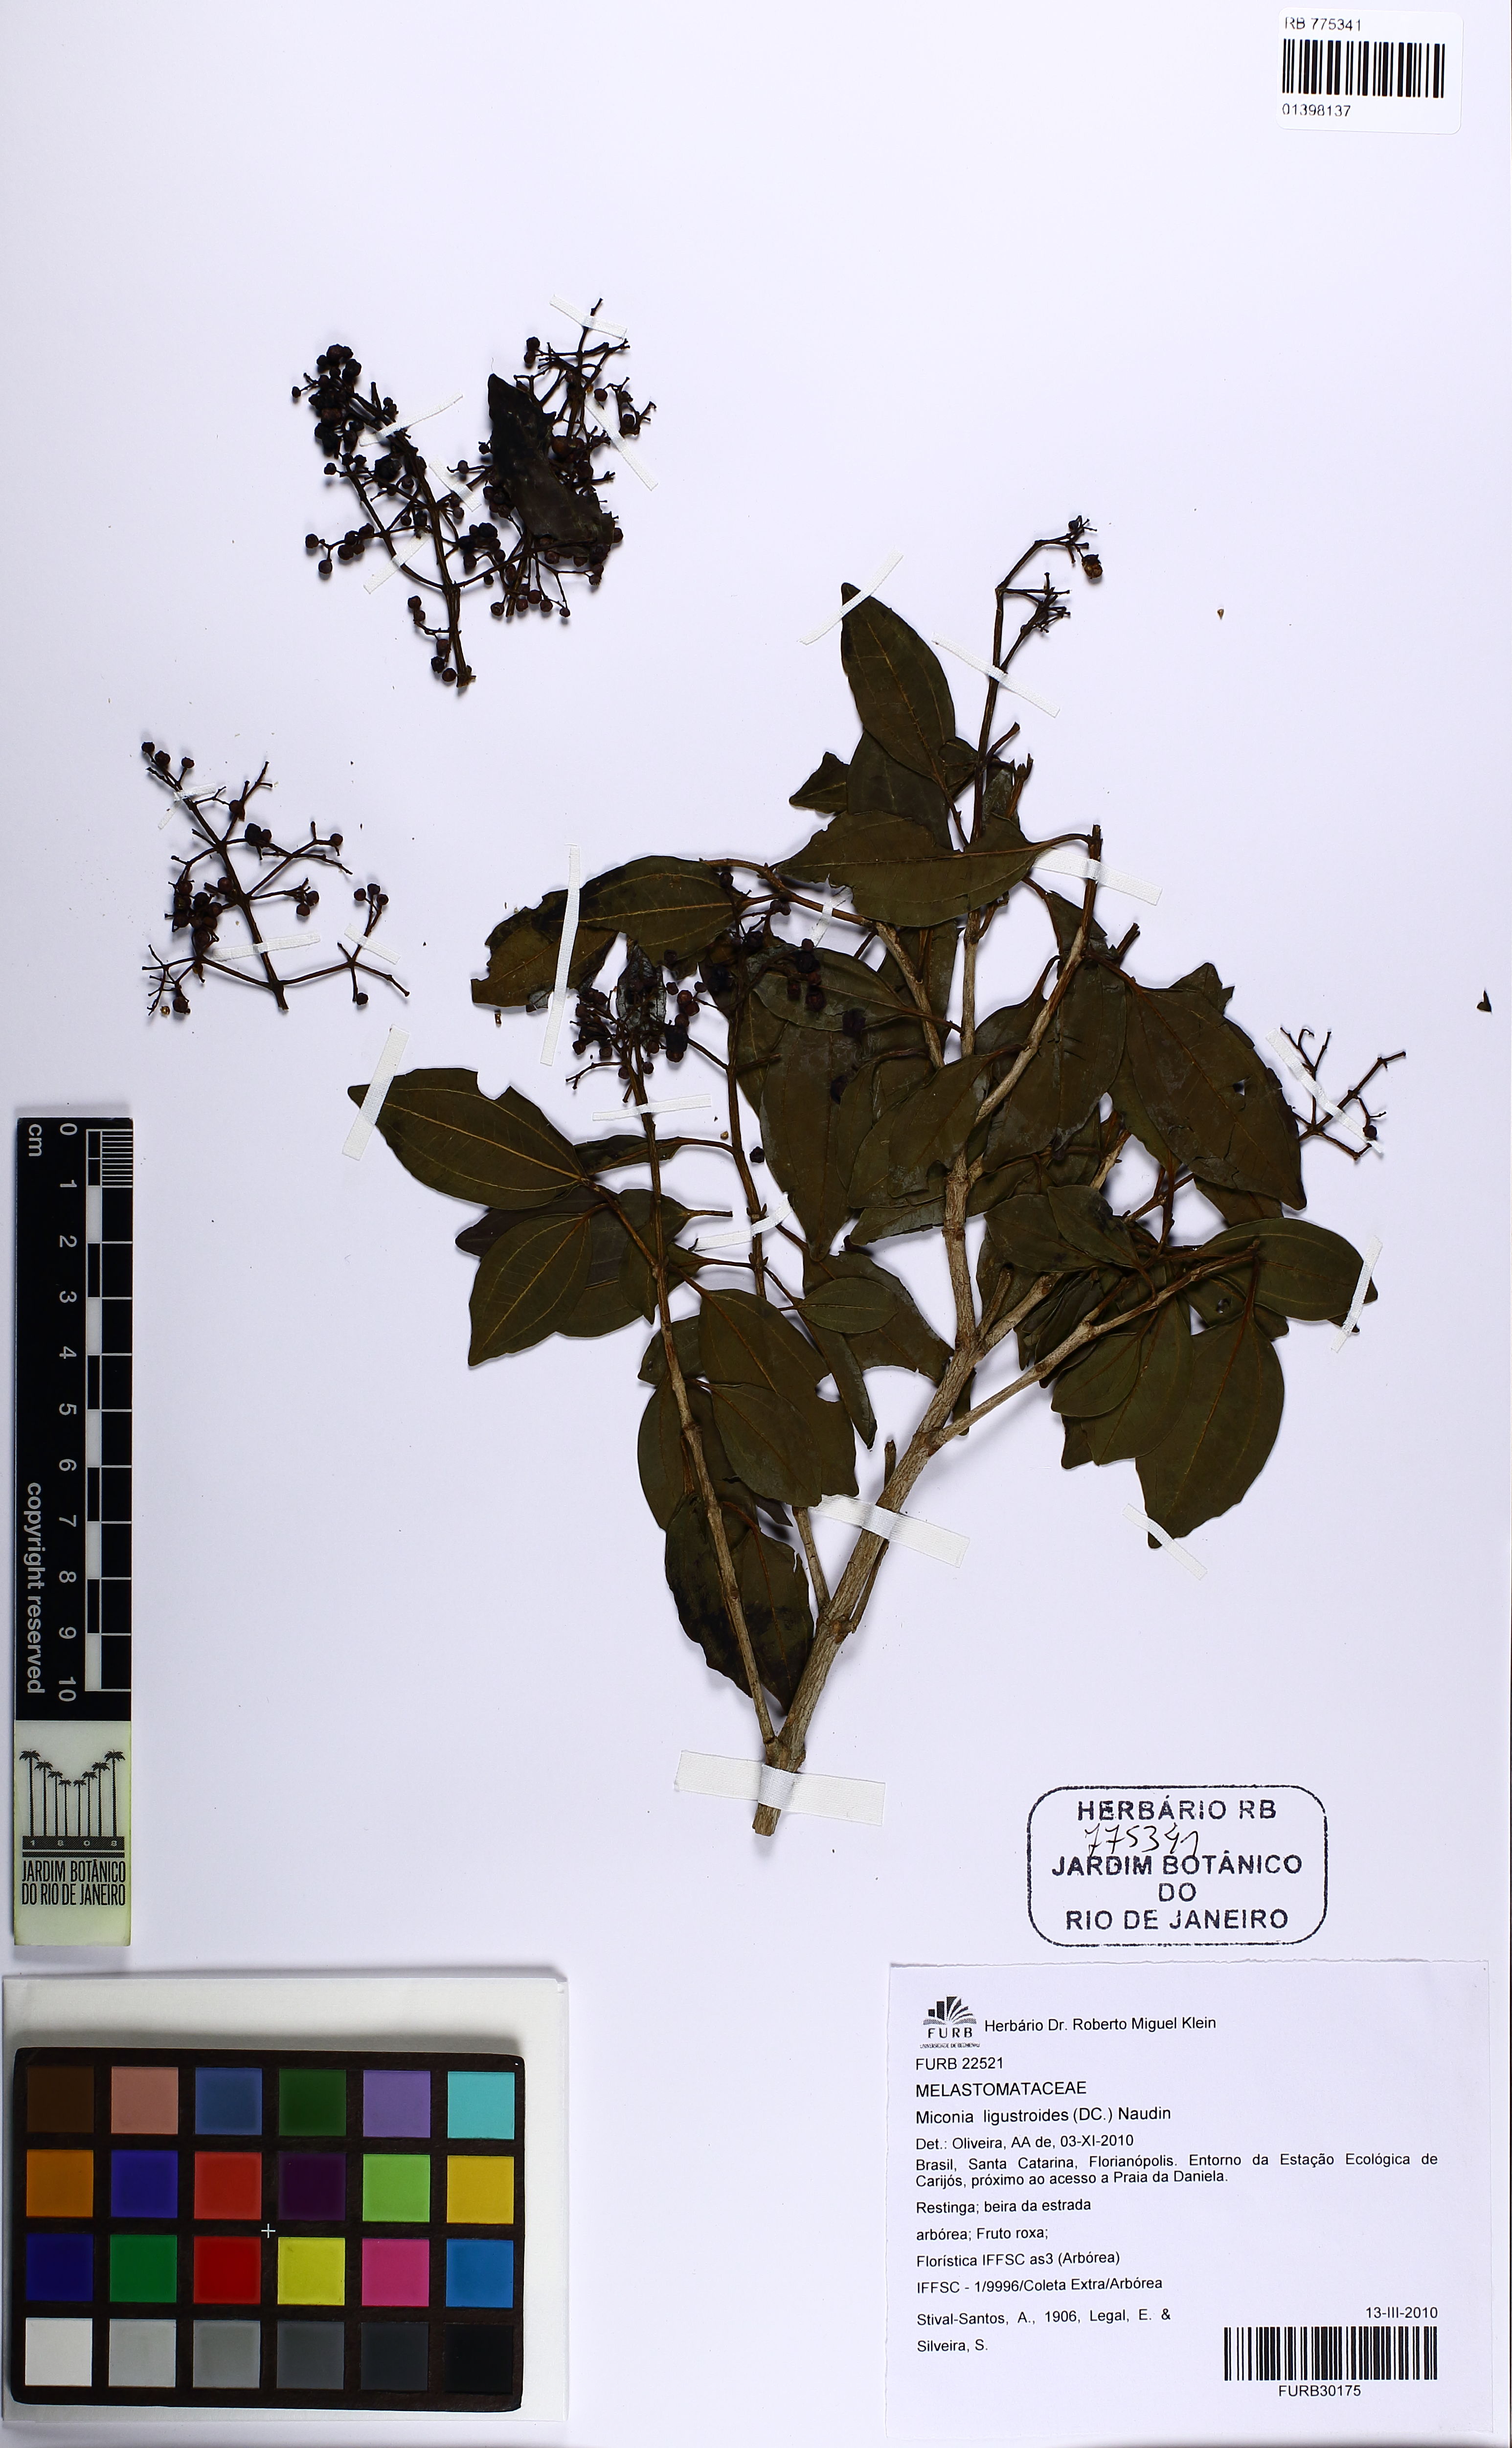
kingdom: Plantae
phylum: Tracheophyta
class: Magnoliopsida
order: Myrtales
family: Melastomataceae
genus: Miconia
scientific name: Miconia ligustroides
